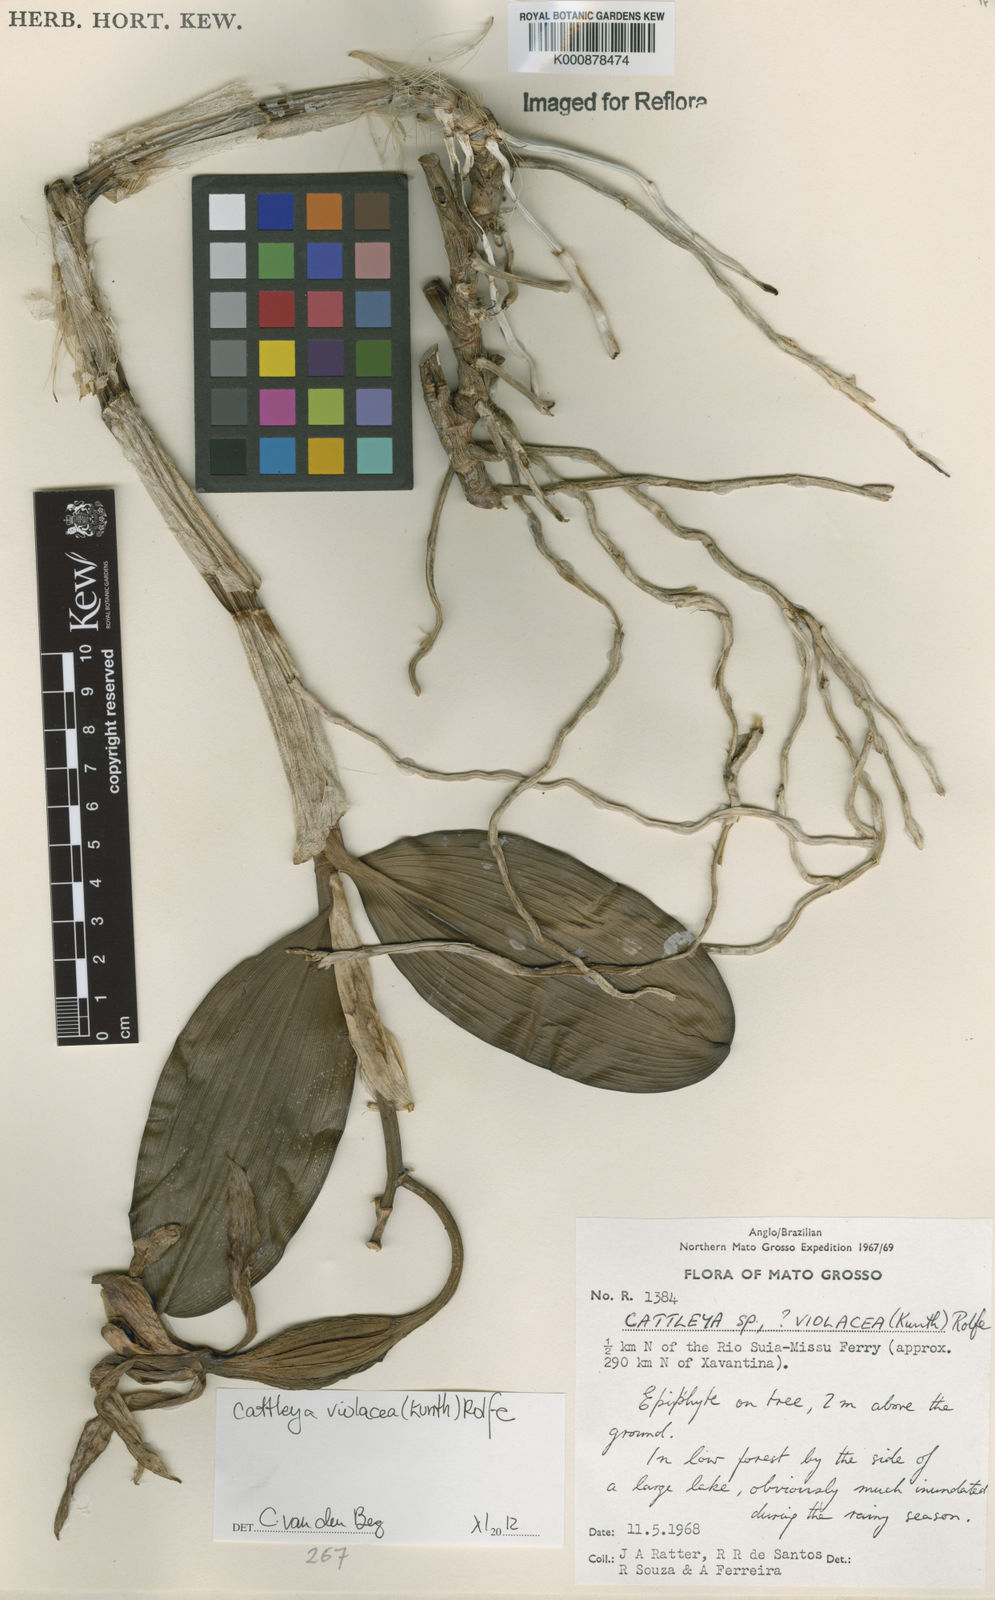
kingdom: Plantae
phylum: Tracheophyta
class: Liliopsida
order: Asparagales
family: Orchidaceae
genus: Cattleya
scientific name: Cattleya
